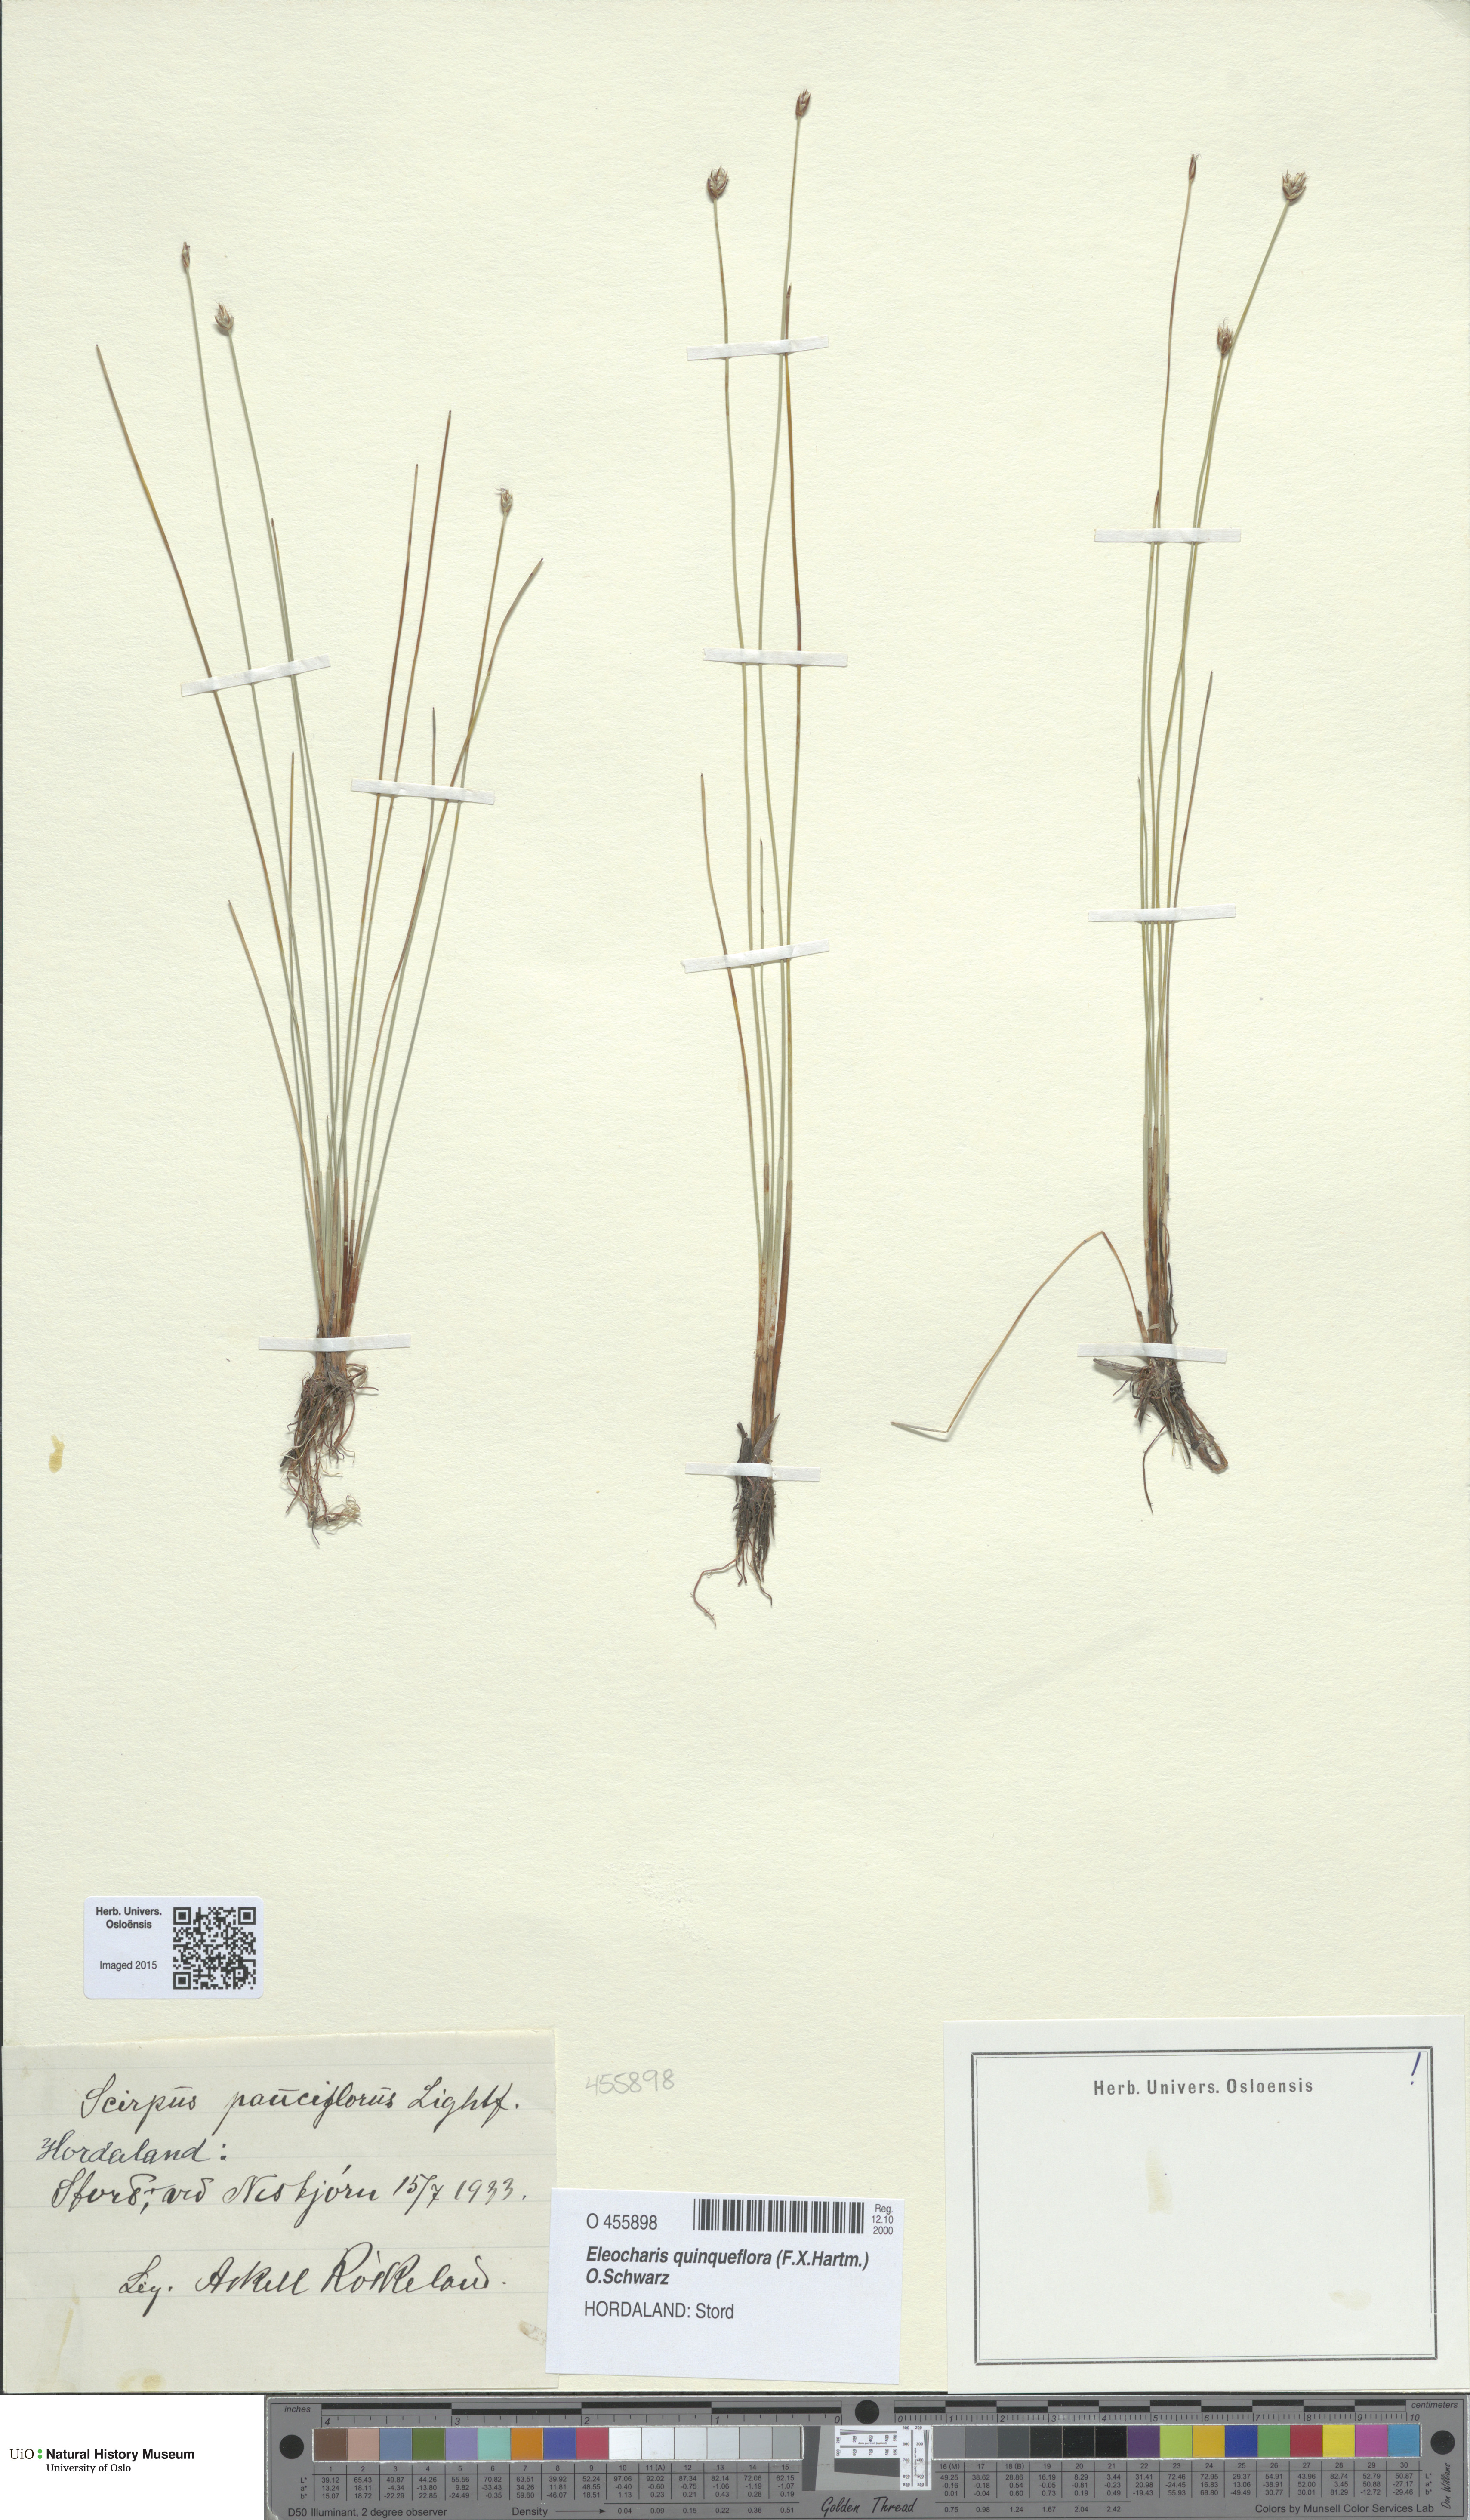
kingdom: Plantae
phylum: Tracheophyta
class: Liliopsida
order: Poales
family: Cyperaceae
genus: Eleocharis
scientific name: Eleocharis quinqueflora
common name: Few-flowered spike-rush
